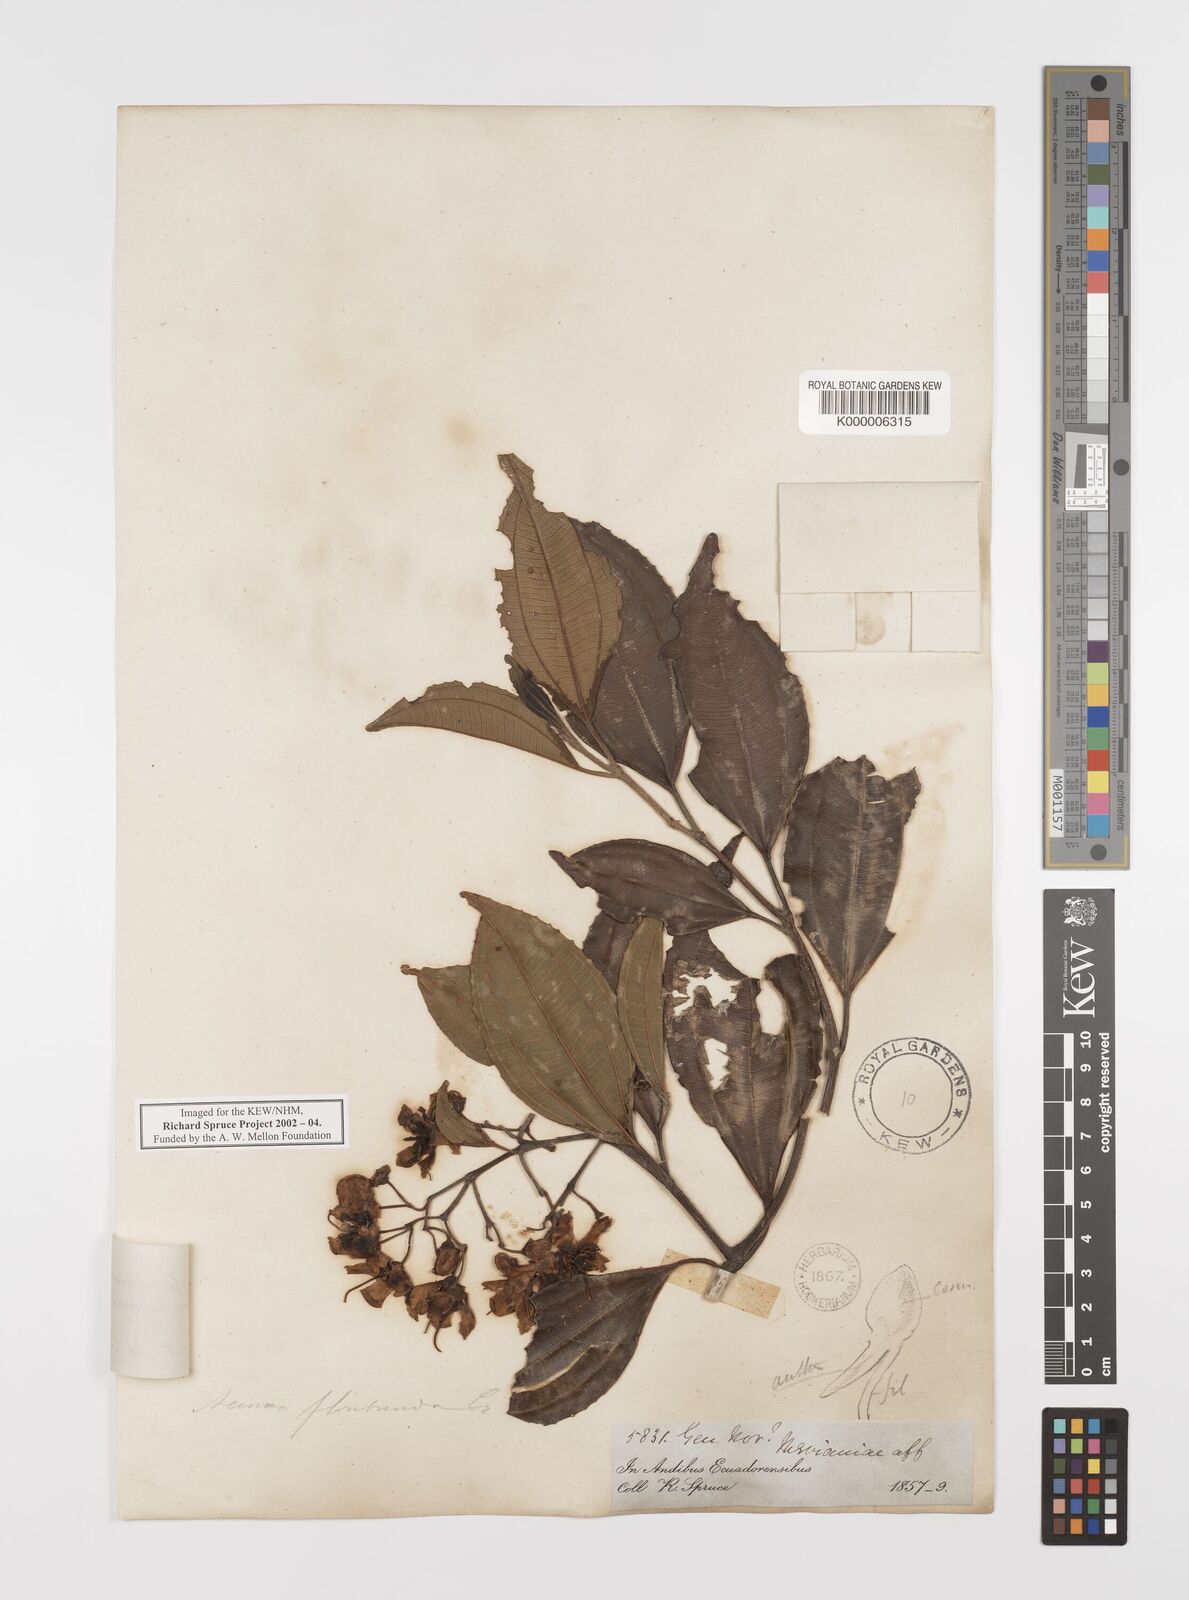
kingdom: Plantae
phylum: Tracheophyta
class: Magnoliopsida
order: Myrtales
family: Melastomataceae
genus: Axinaea
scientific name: Axinaea macrophylla
